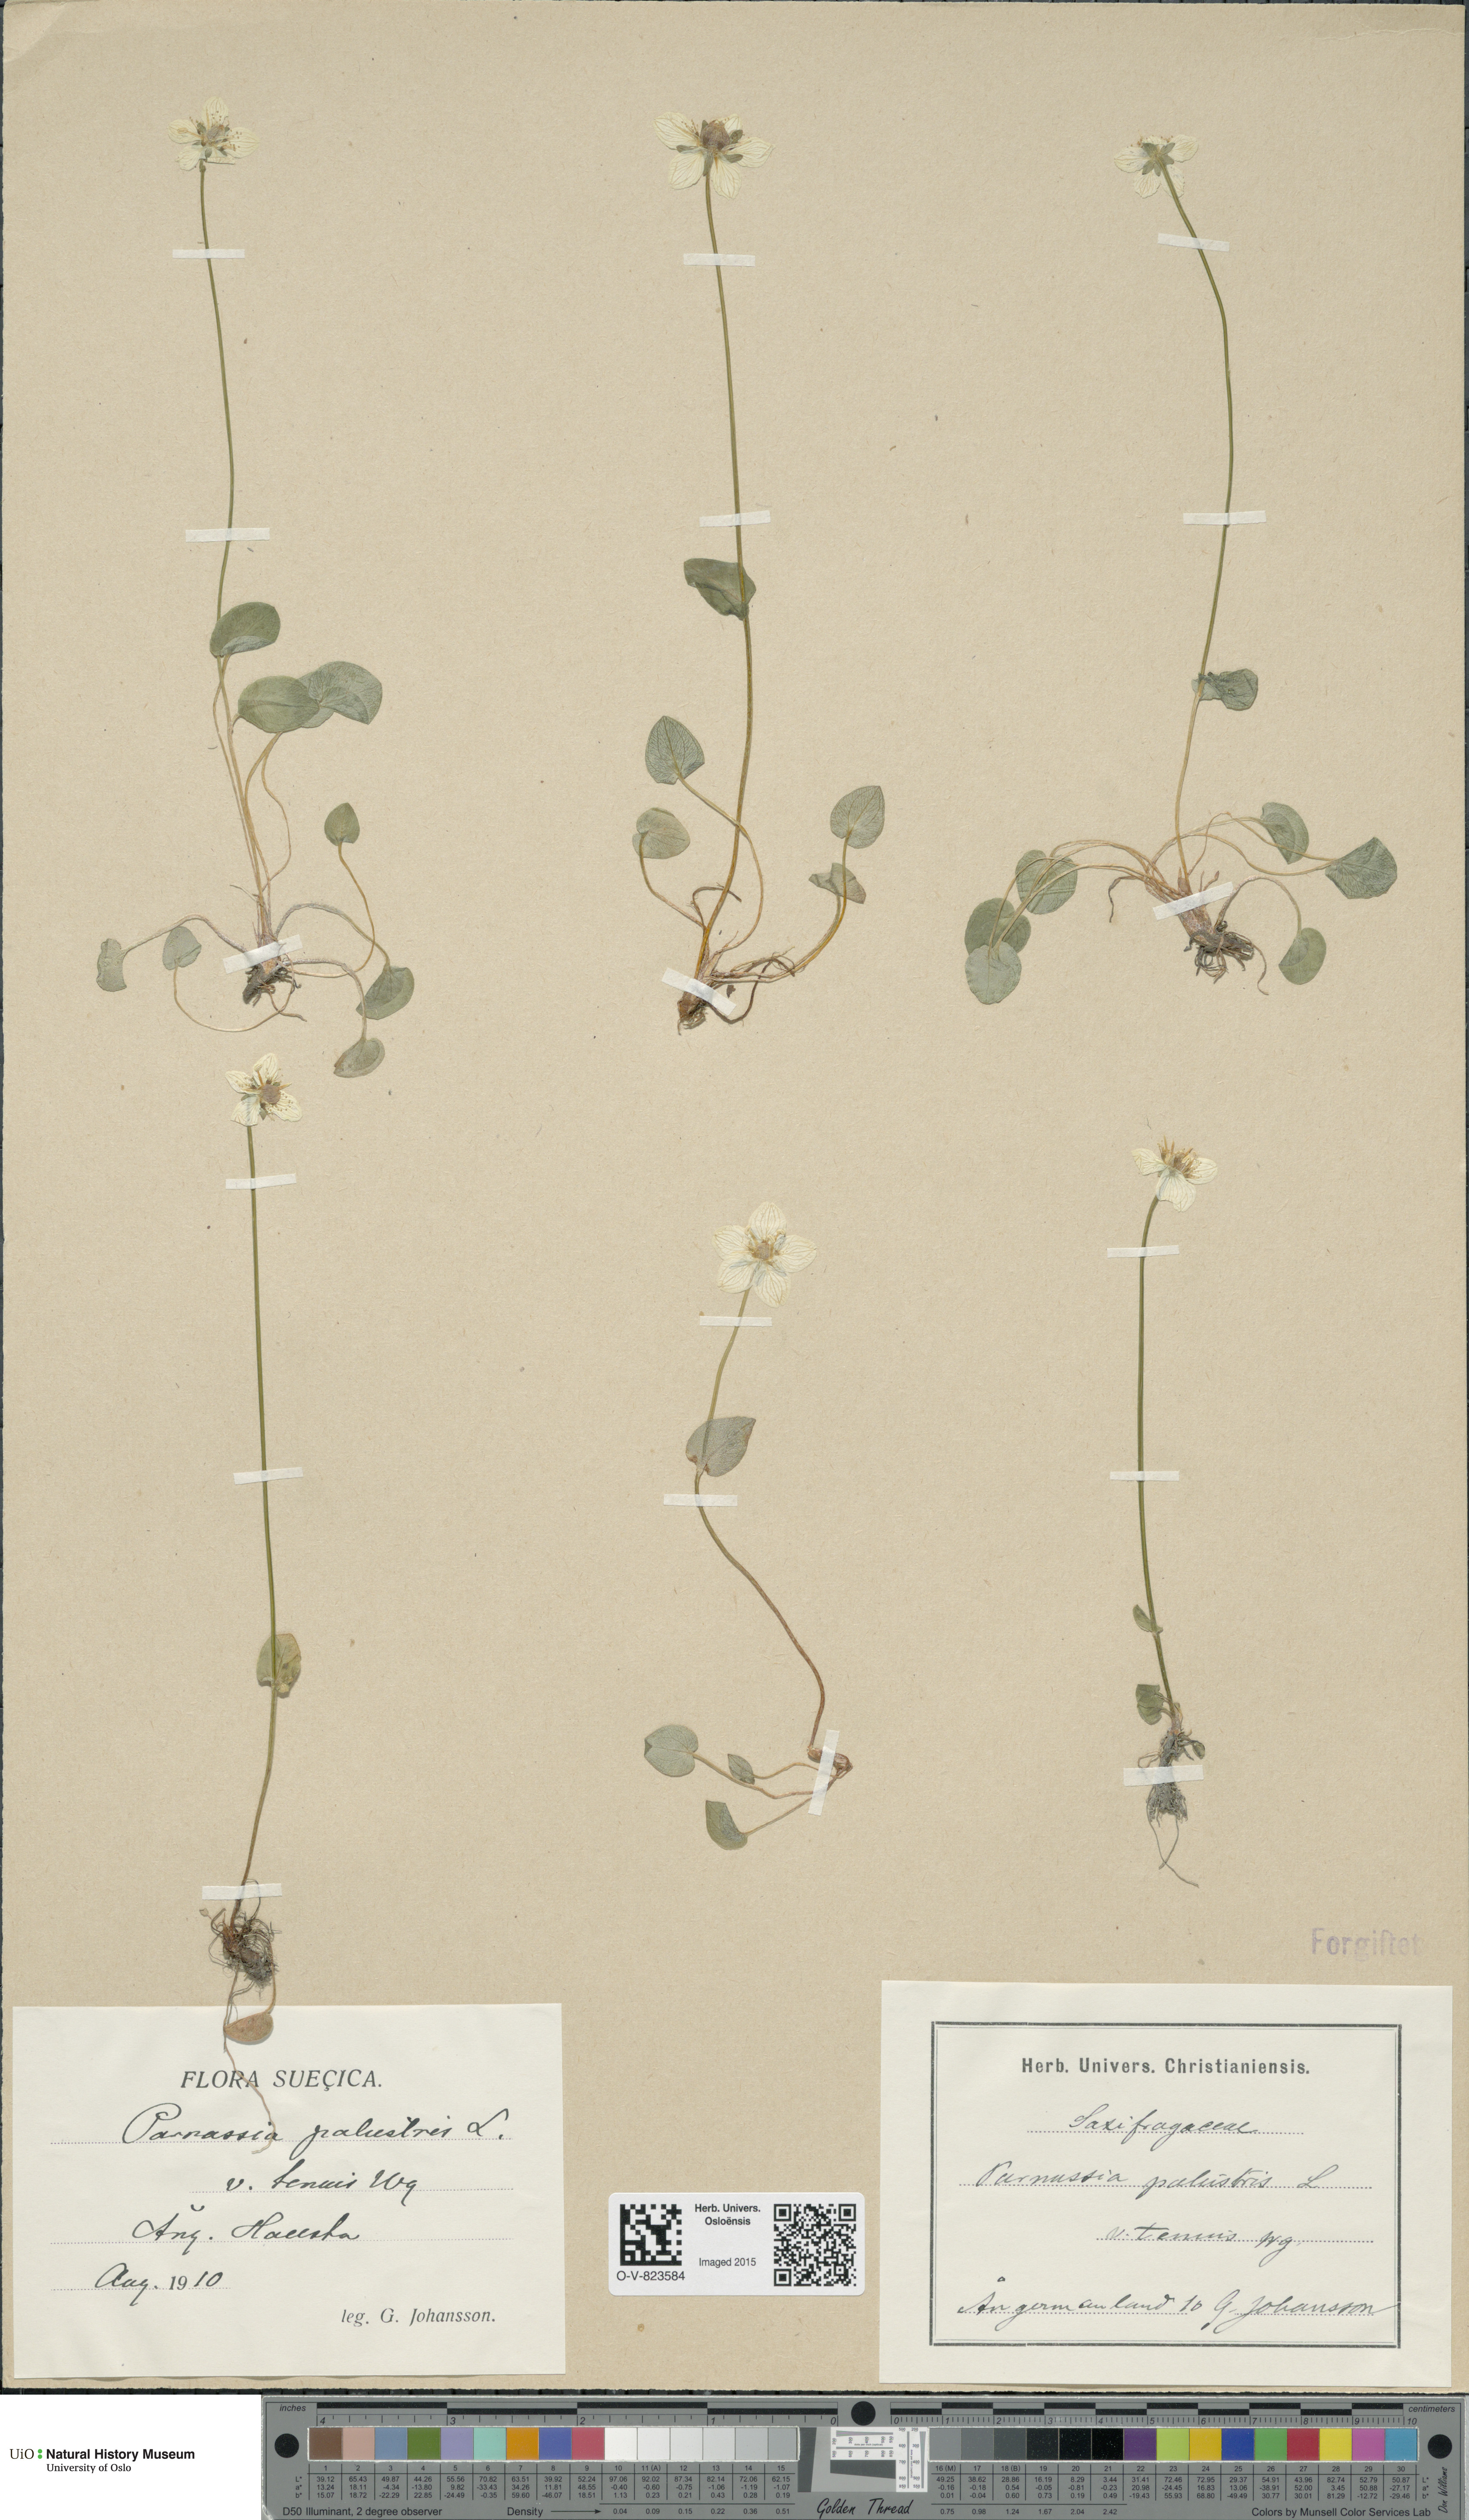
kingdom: Plantae
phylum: Tracheophyta
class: Magnoliopsida
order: Celastrales
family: Parnassiaceae
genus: Parnassia
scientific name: Parnassia palustris
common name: Grass-of-parnassus
